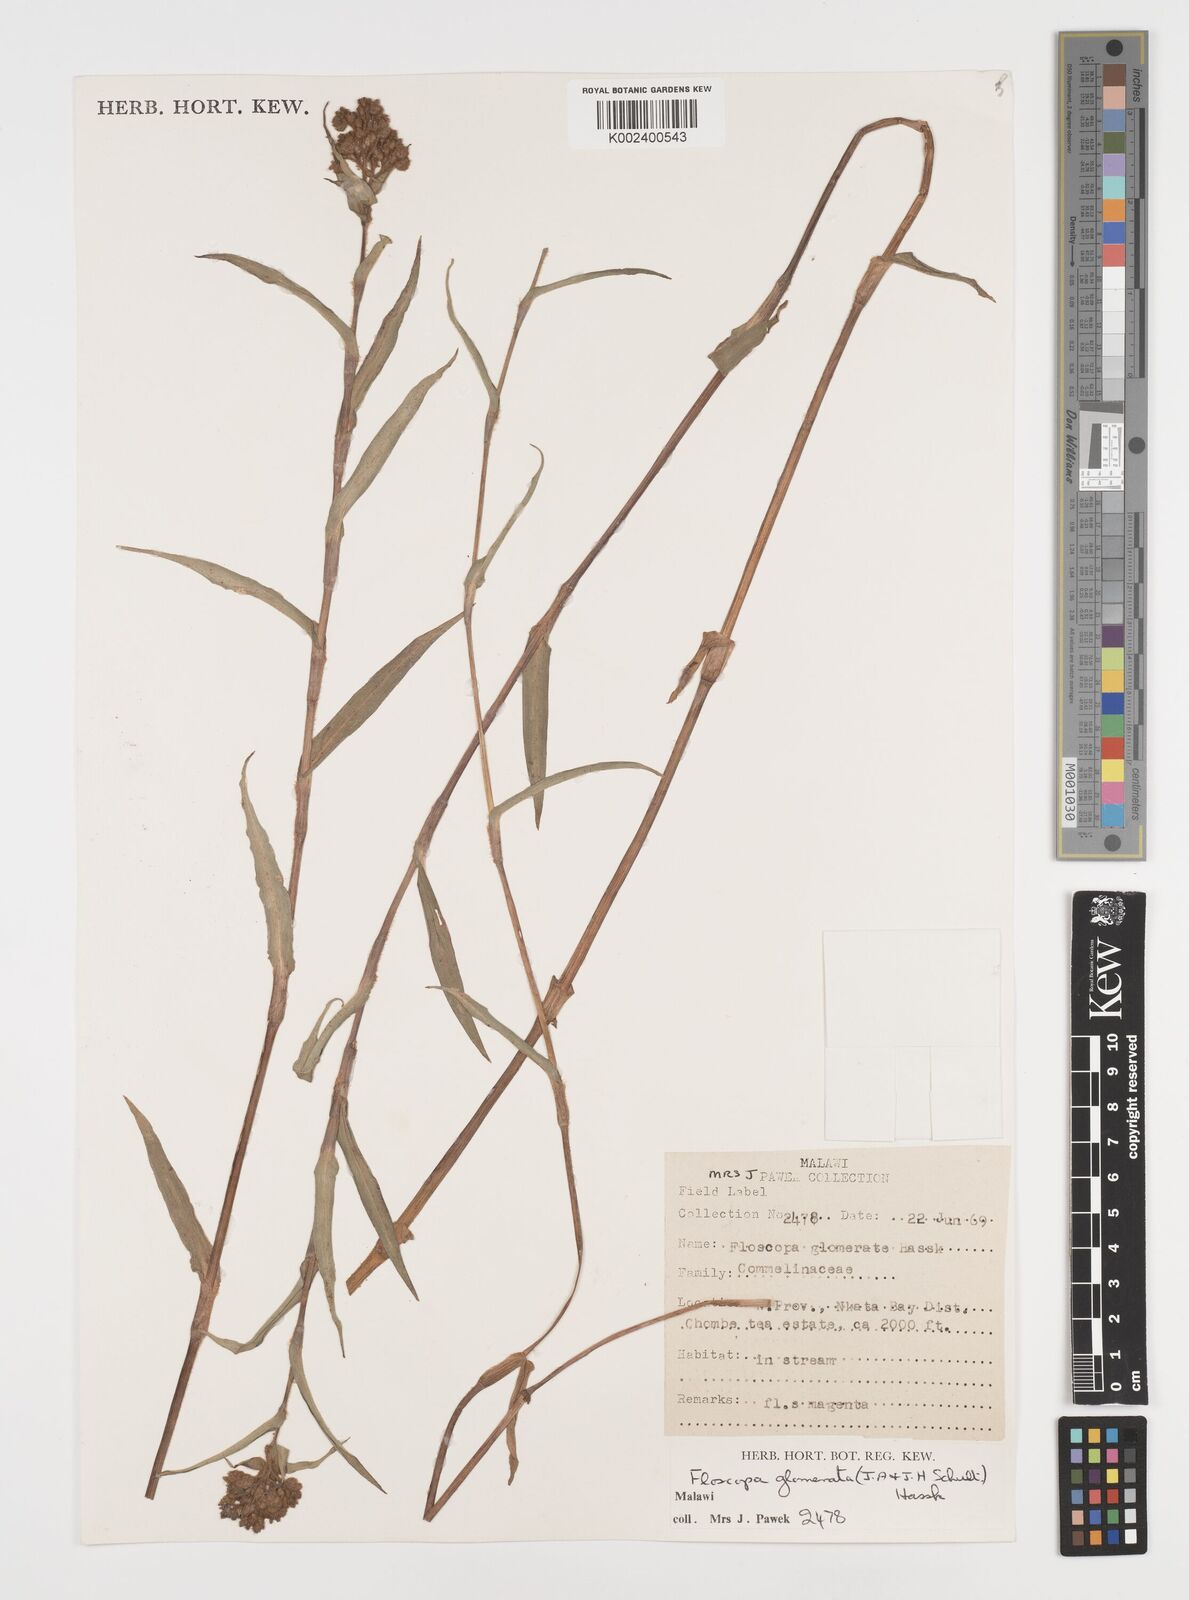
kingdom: Plantae
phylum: Tracheophyta
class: Liliopsida
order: Commelinales
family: Commelinaceae
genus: Floscopa
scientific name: Floscopa glomerata
